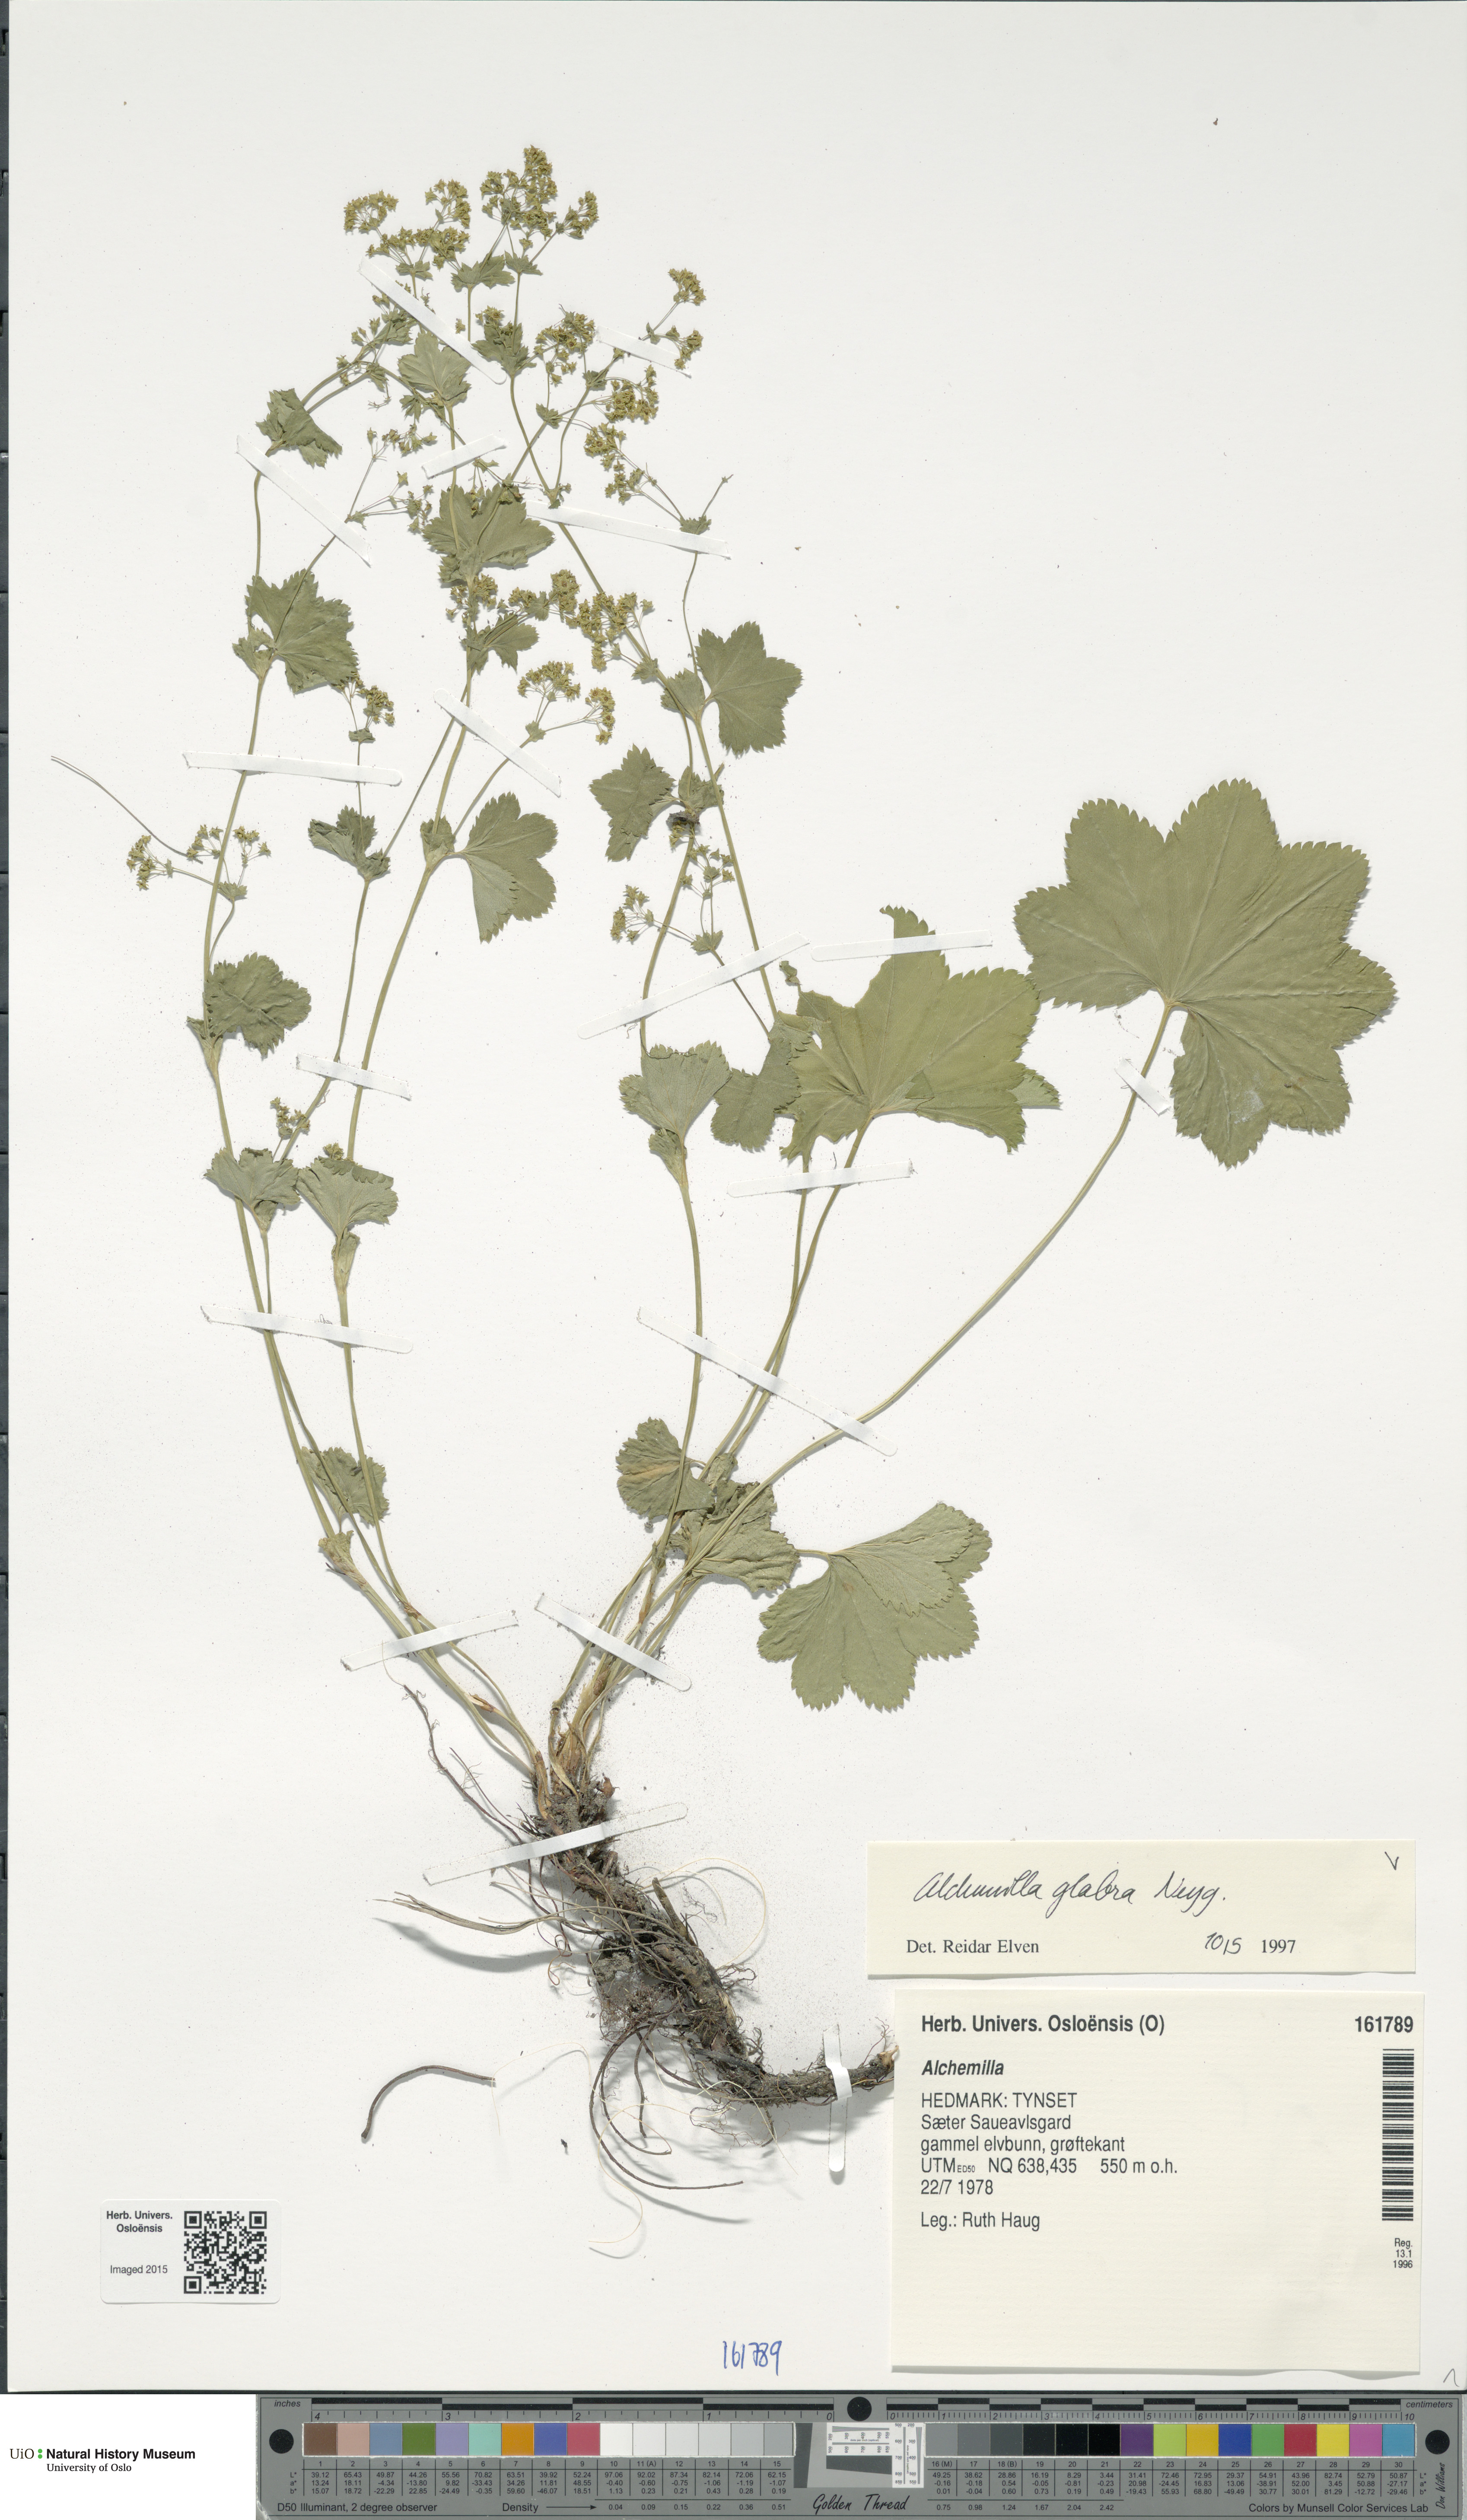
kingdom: Plantae
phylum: Tracheophyta
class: Magnoliopsida
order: Rosales
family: Rosaceae
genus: Alchemilla
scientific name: Alchemilla glabra
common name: Smooth lady's-mantle
